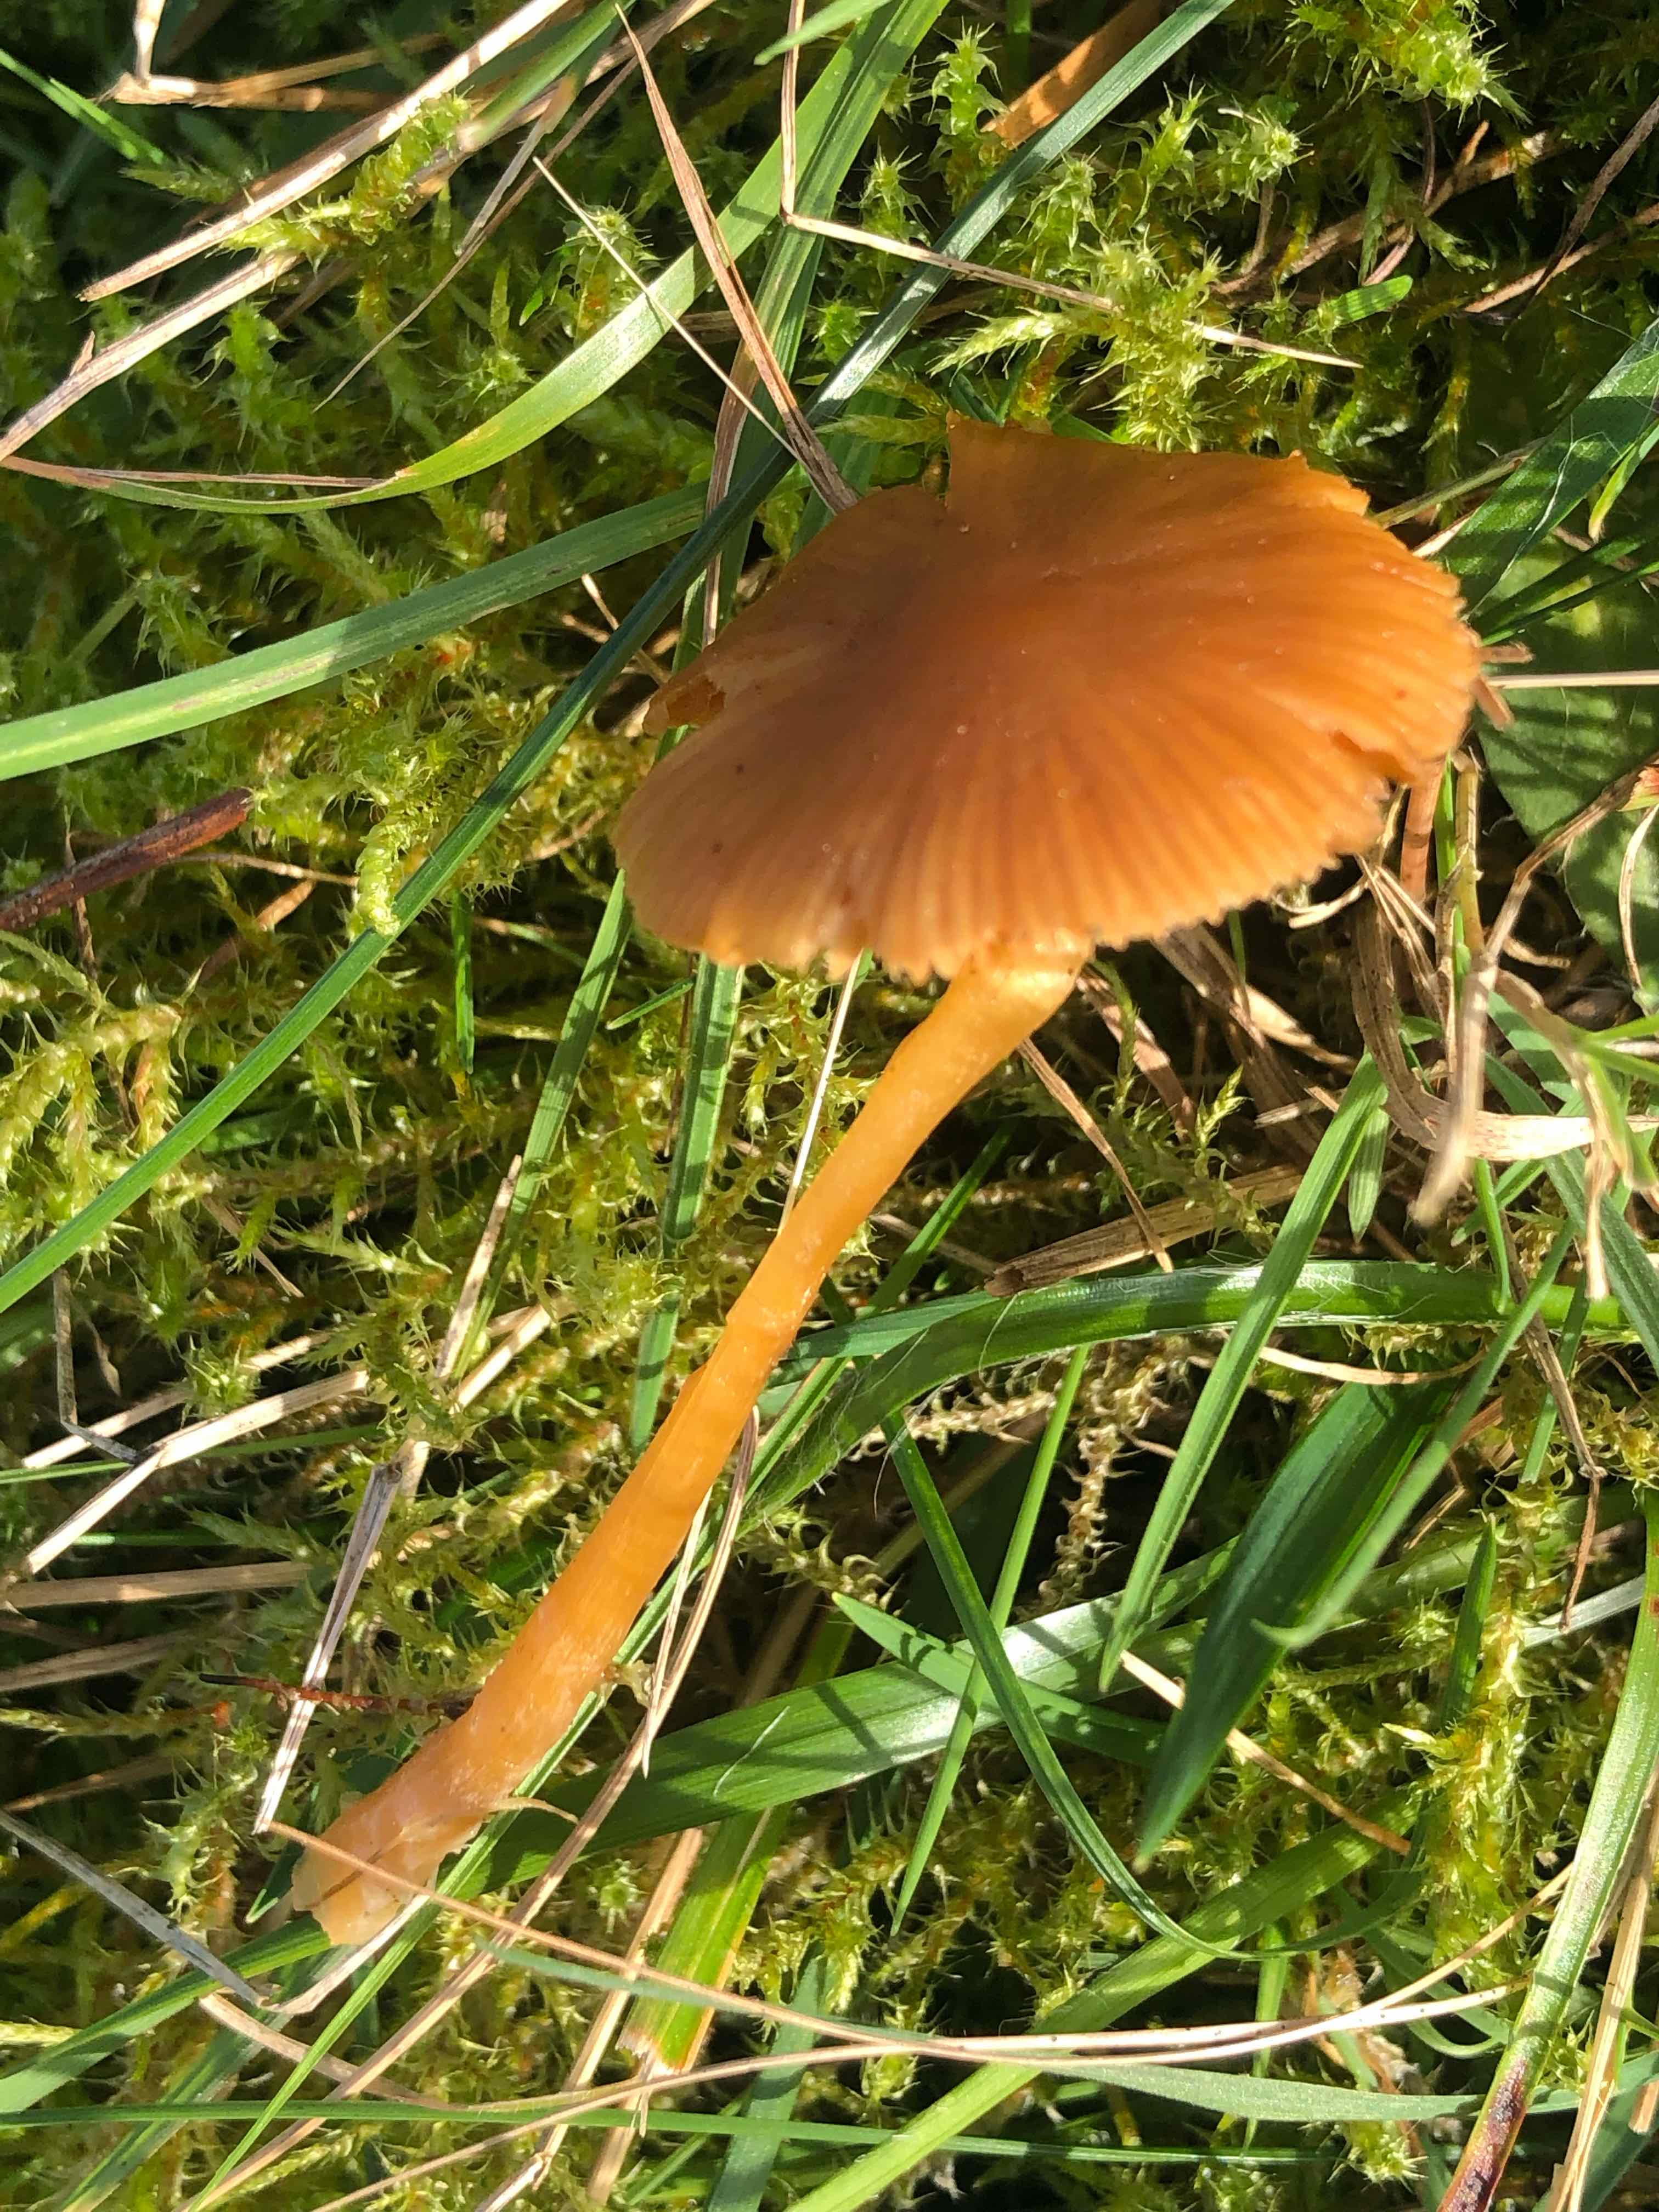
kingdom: Fungi
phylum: Basidiomycota
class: Agaricomycetes
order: Agaricales
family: Hymenogastraceae
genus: Galerina
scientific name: Galerina
